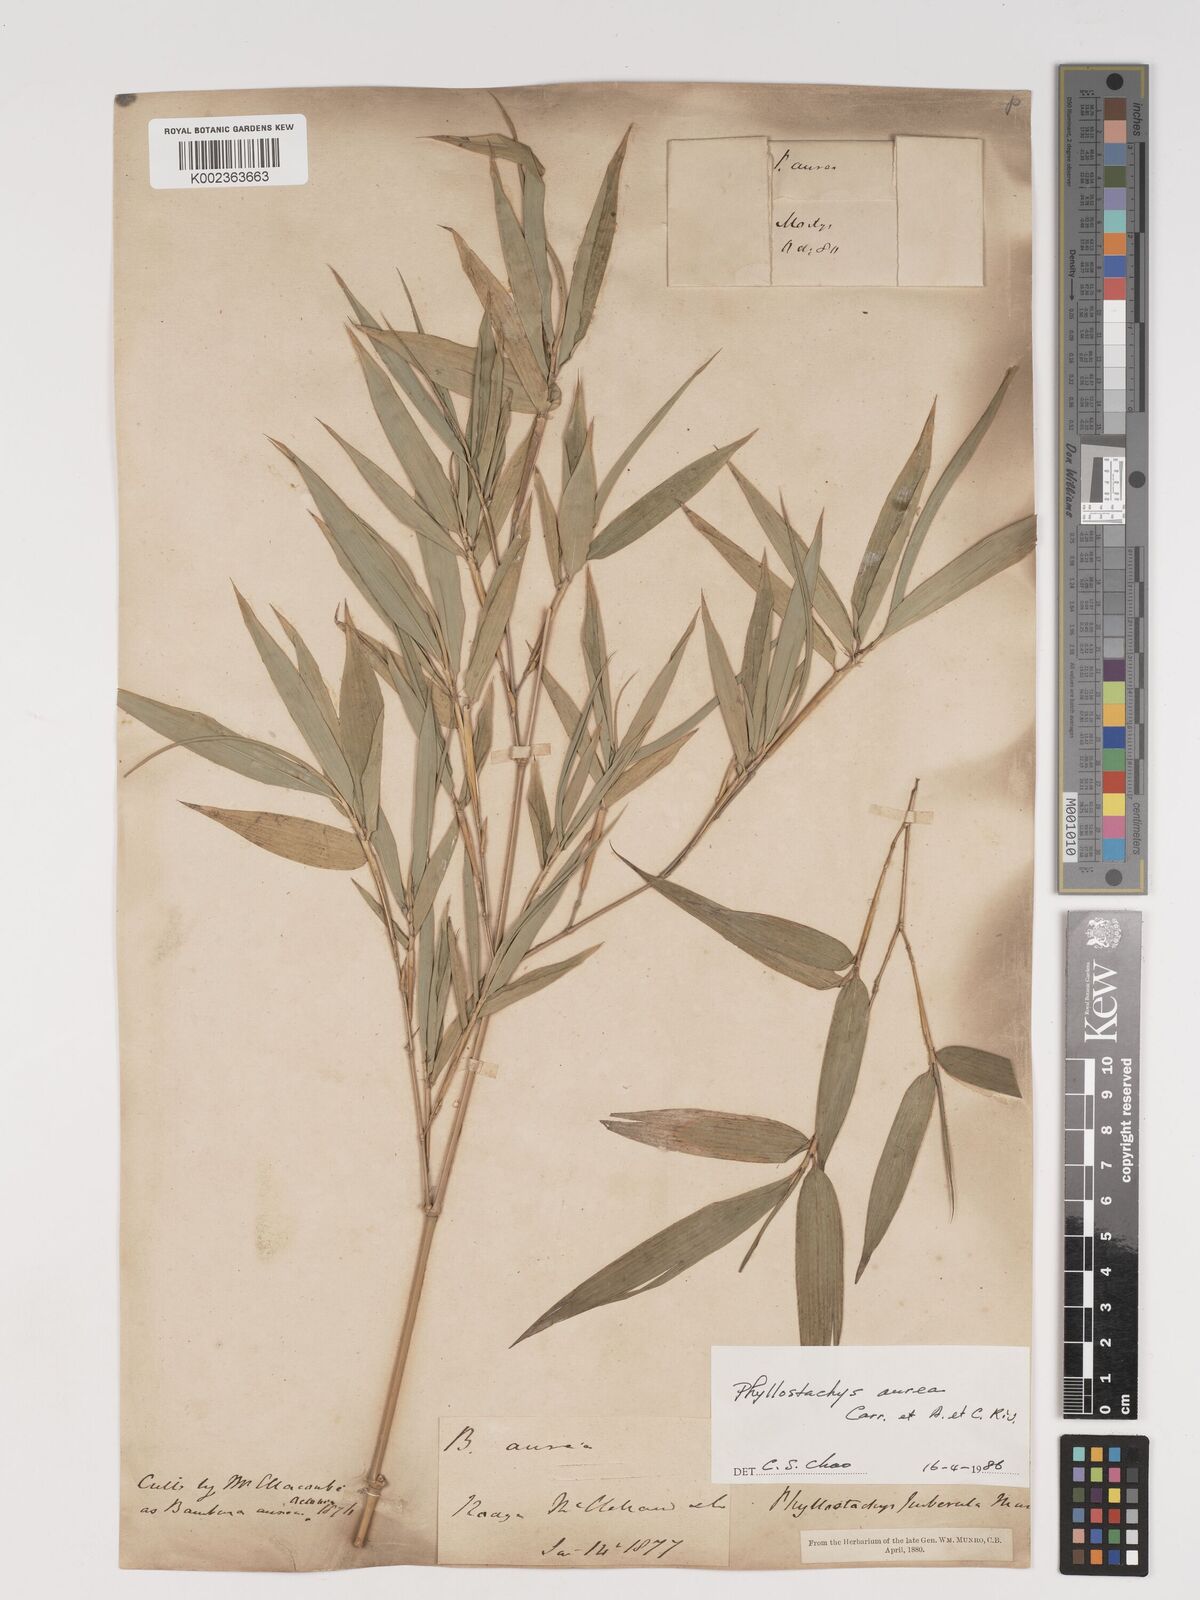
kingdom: Plantae
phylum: Tracheophyta
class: Liliopsida
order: Poales
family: Poaceae
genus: Phyllostachys
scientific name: Phyllostachys aurea
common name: Golden bamboo
